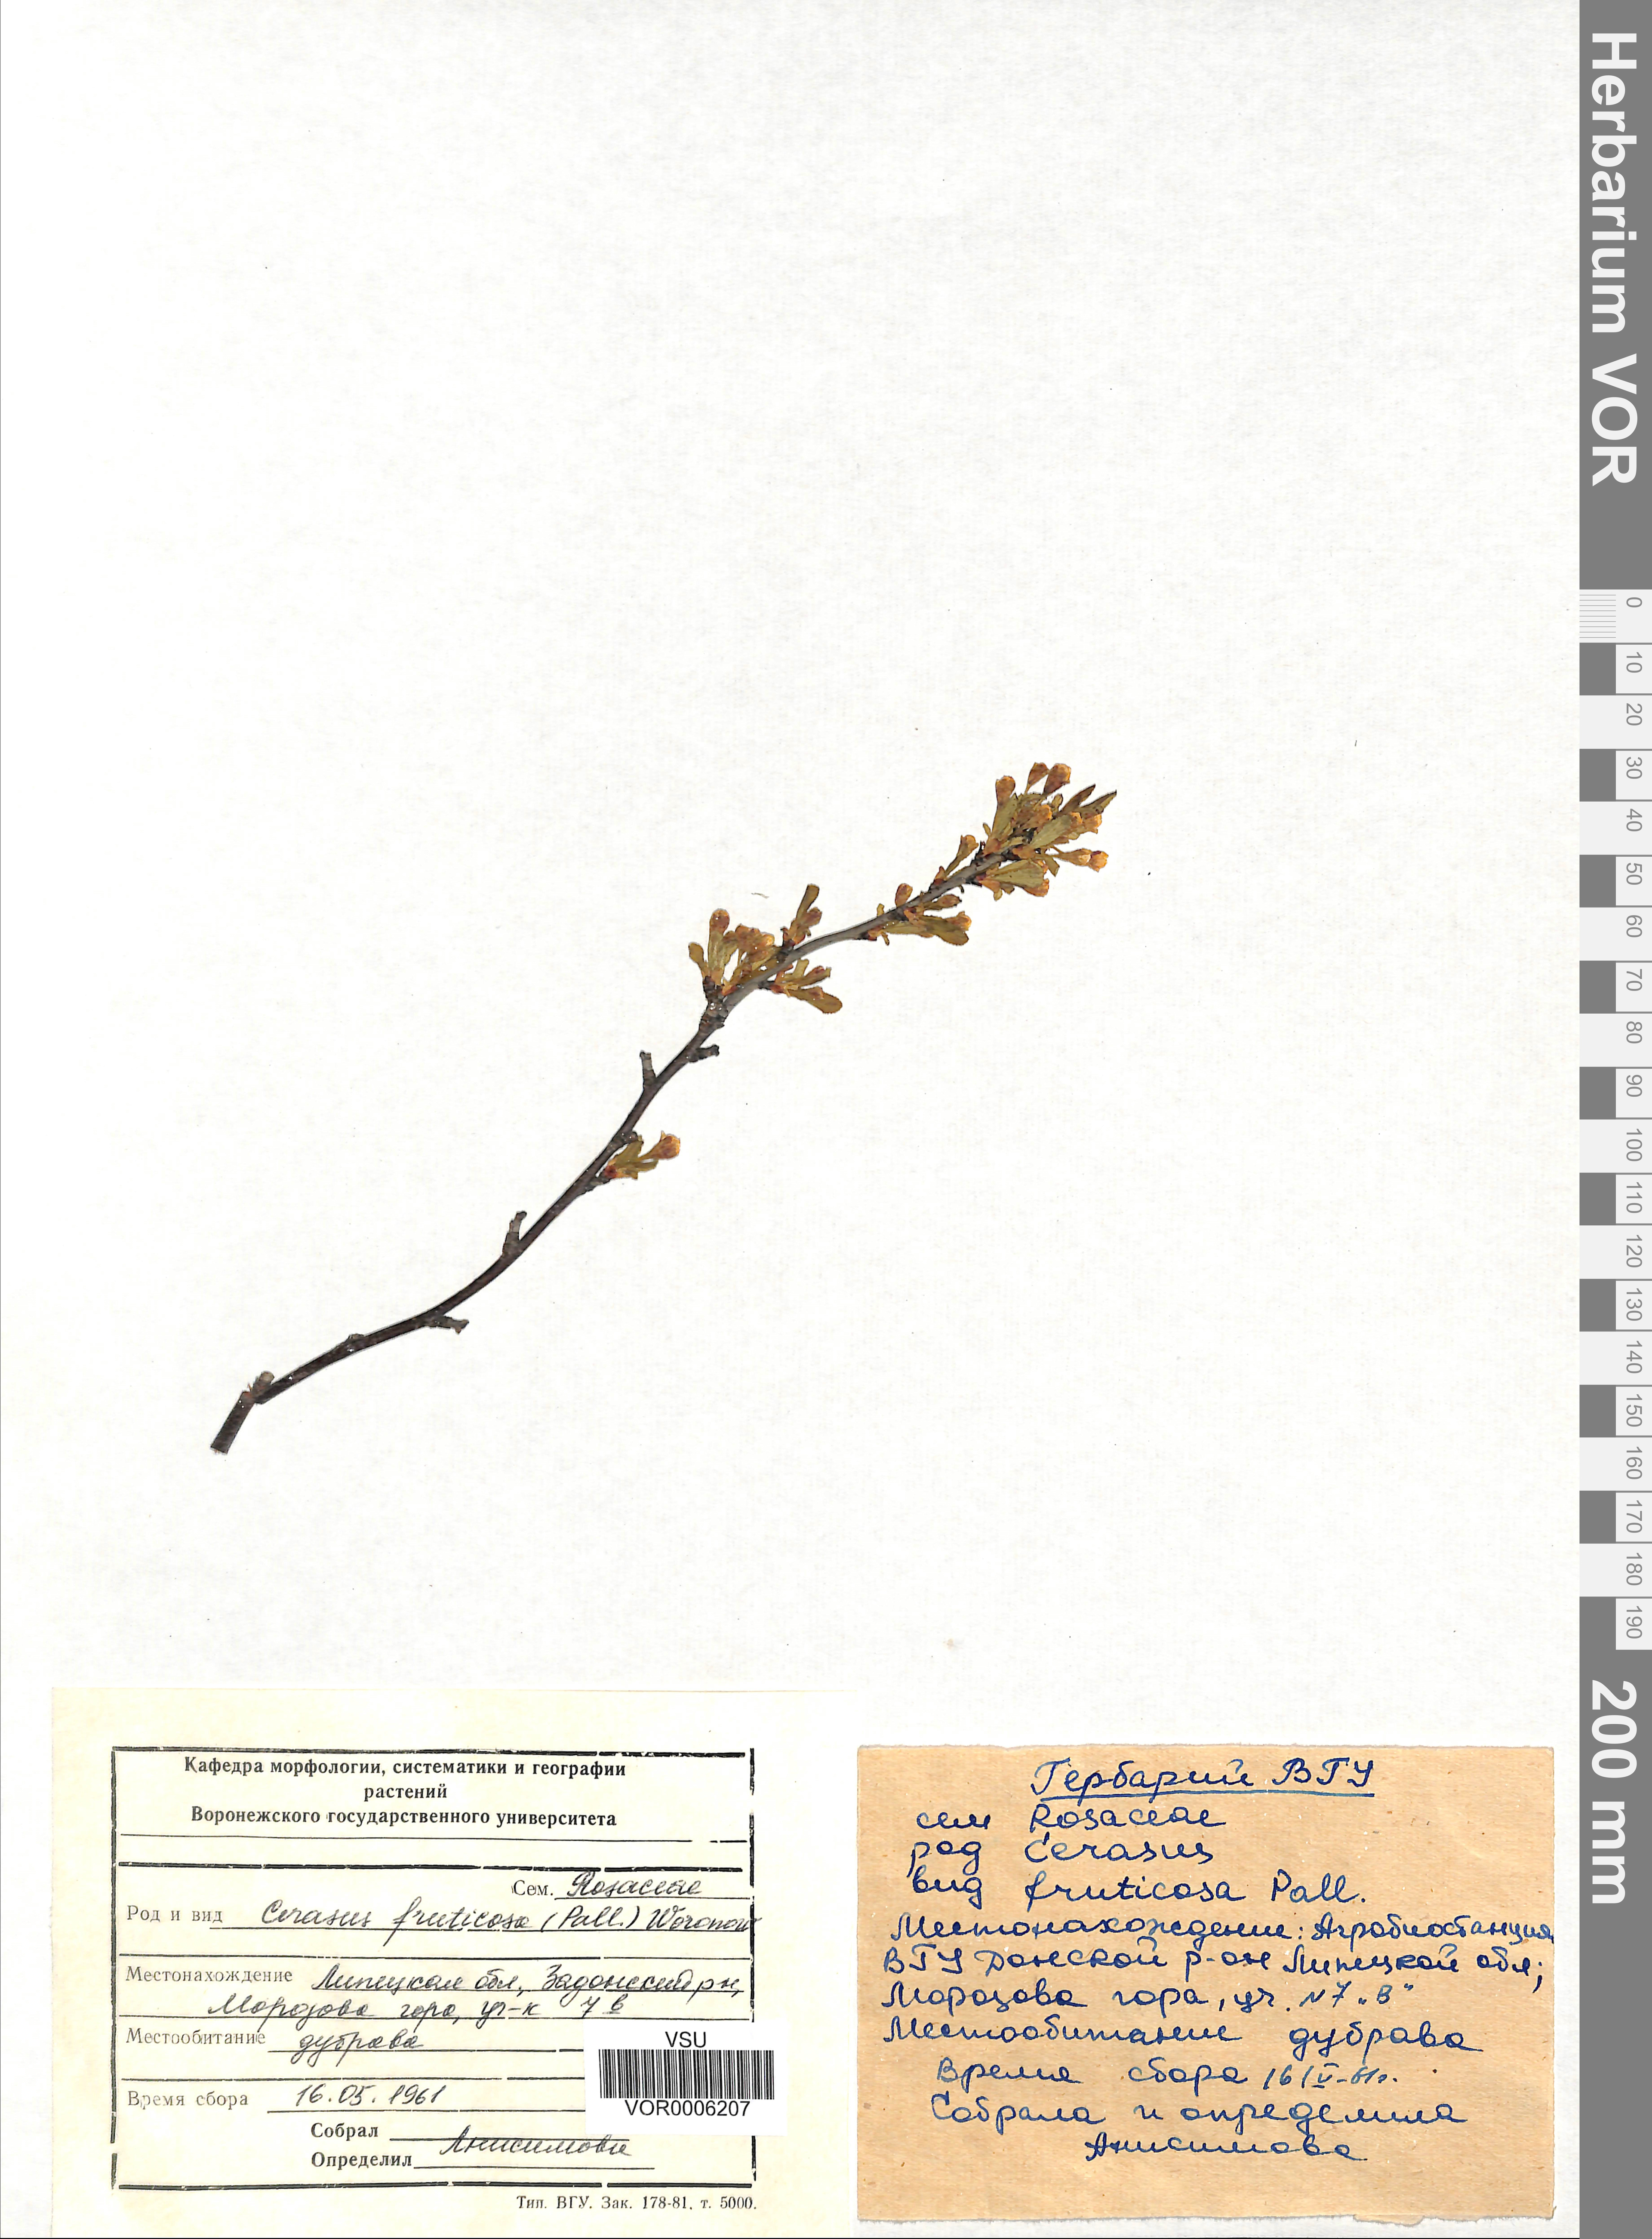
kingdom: Plantae
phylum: Tracheophyta
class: Magnoliopsida
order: Rosales
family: Rosaceae
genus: Prunus
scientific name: Prunus fruticosa
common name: European dwarf cherry
